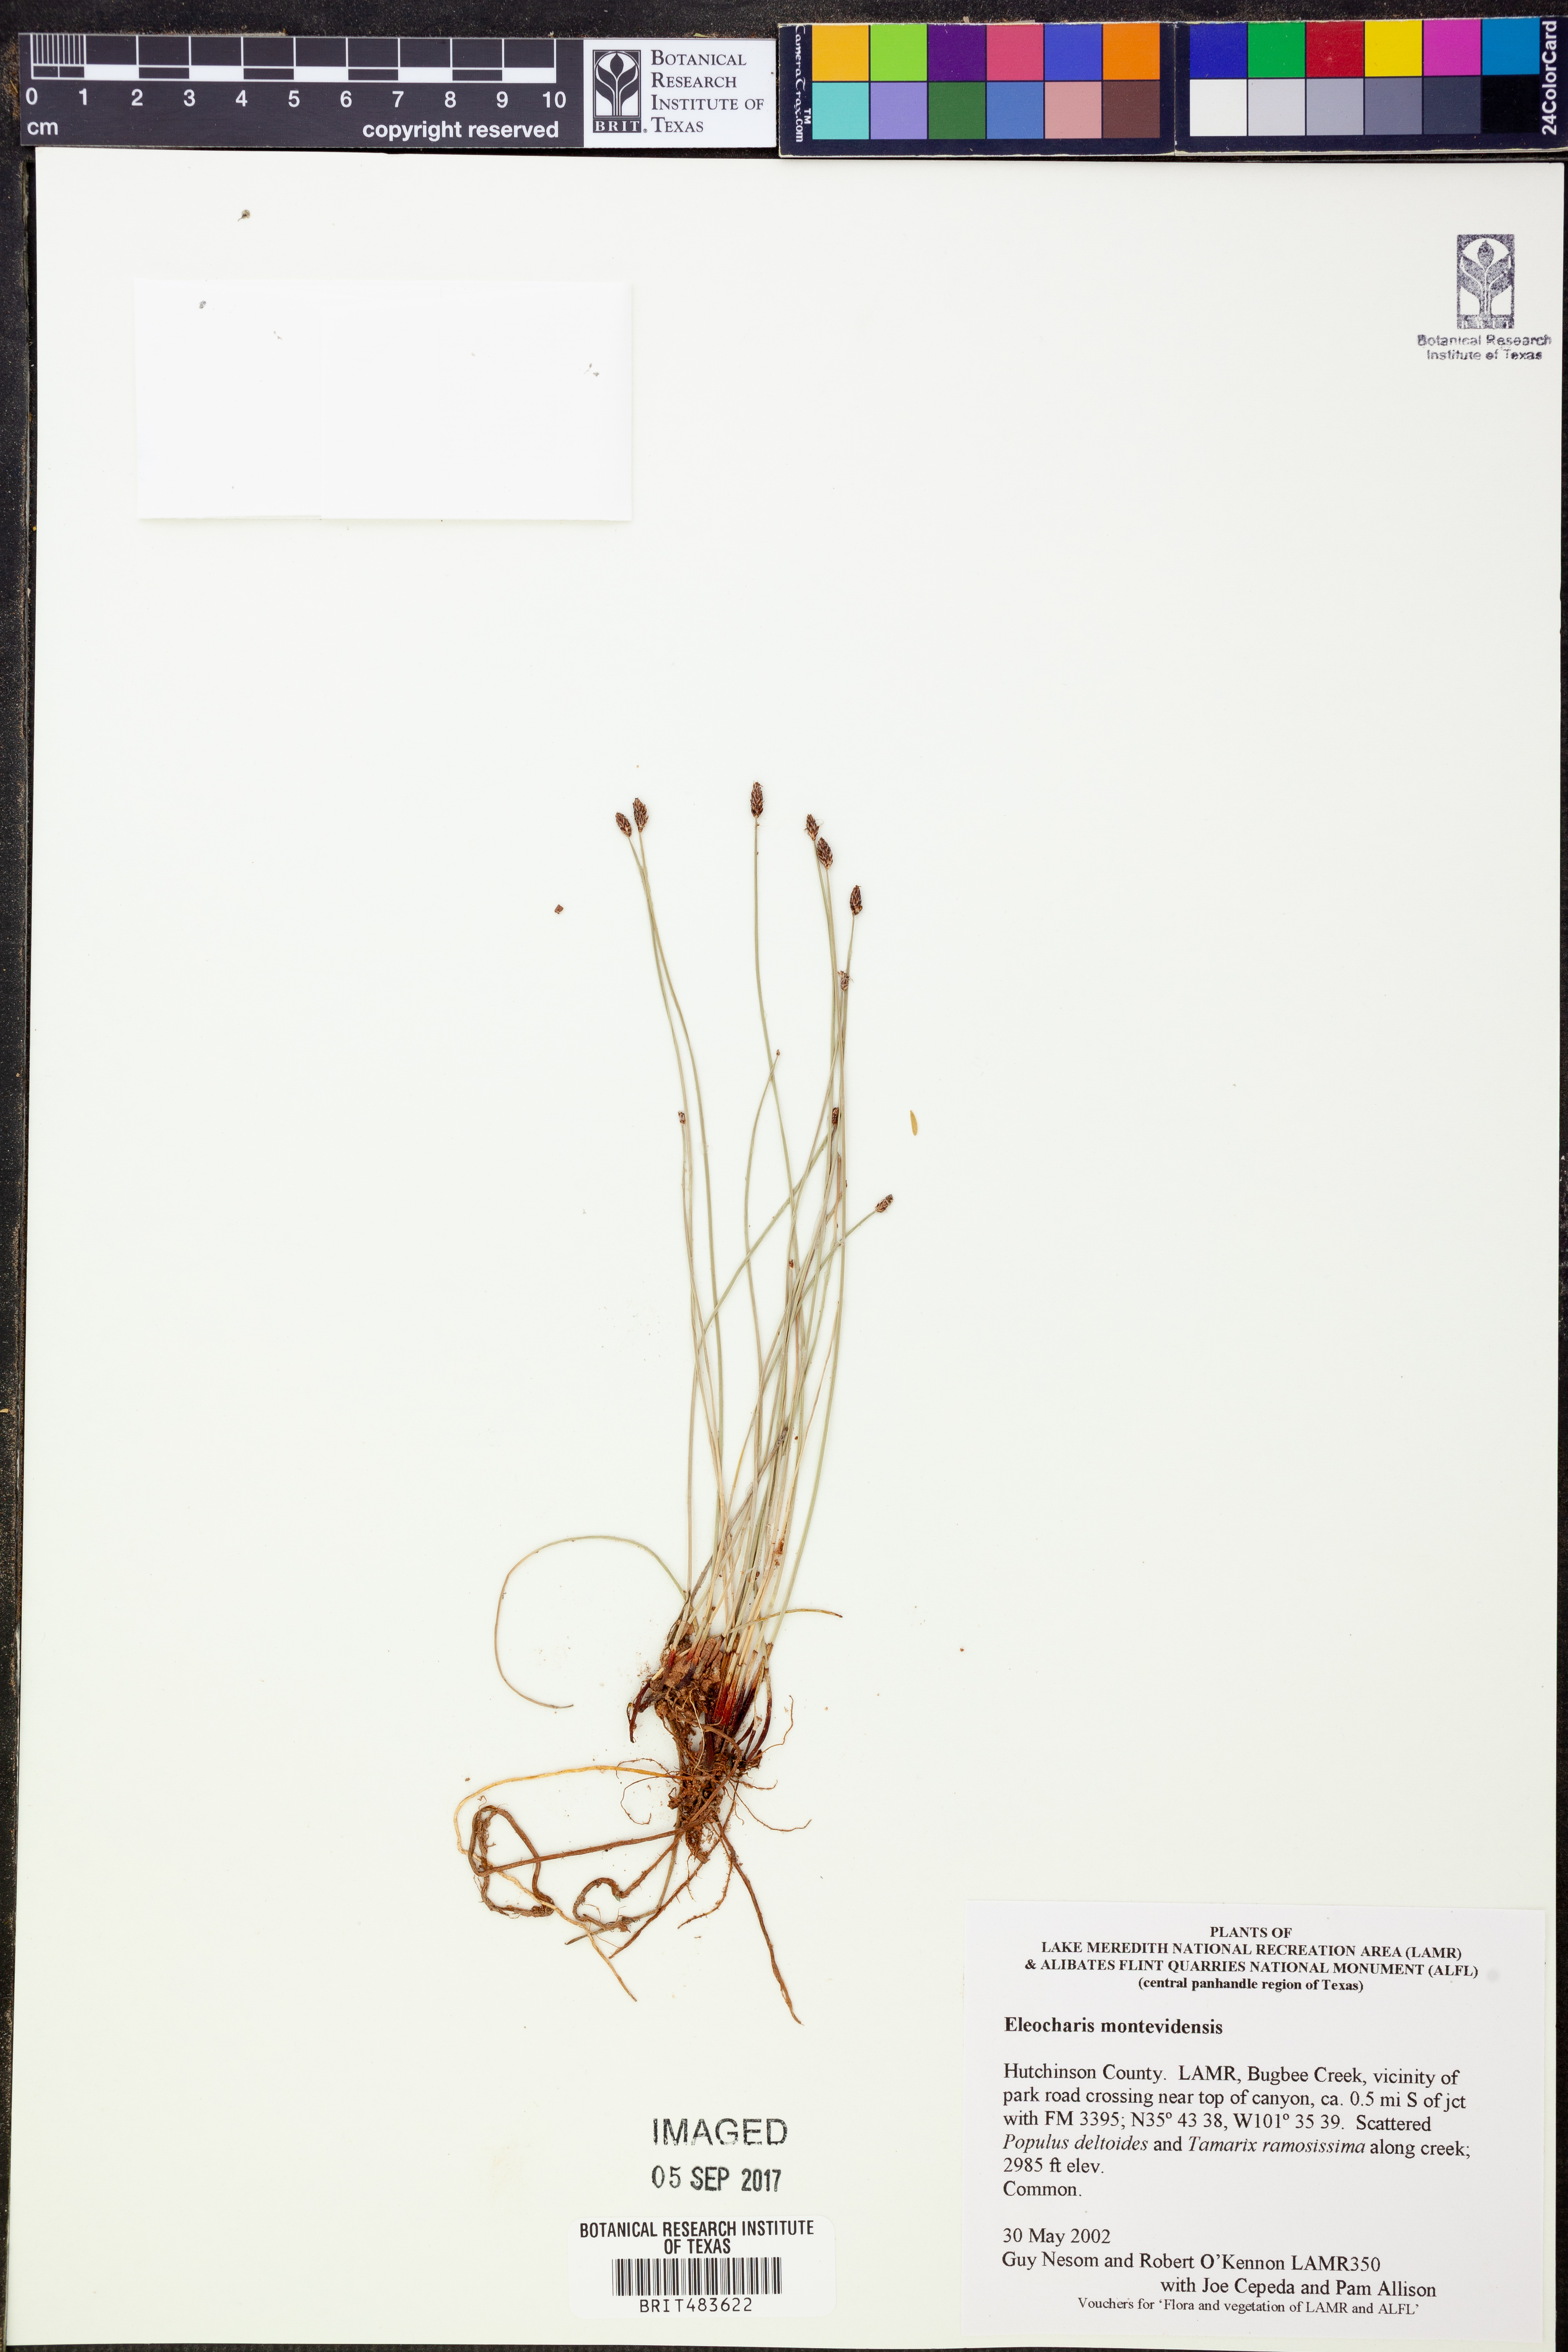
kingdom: Plantae
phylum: Tracheophyta
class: Liliopsida
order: Poales
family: Cyperaceae
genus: Eleocharis
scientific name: Eleocharis montevidensis
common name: Sand spike-rush
